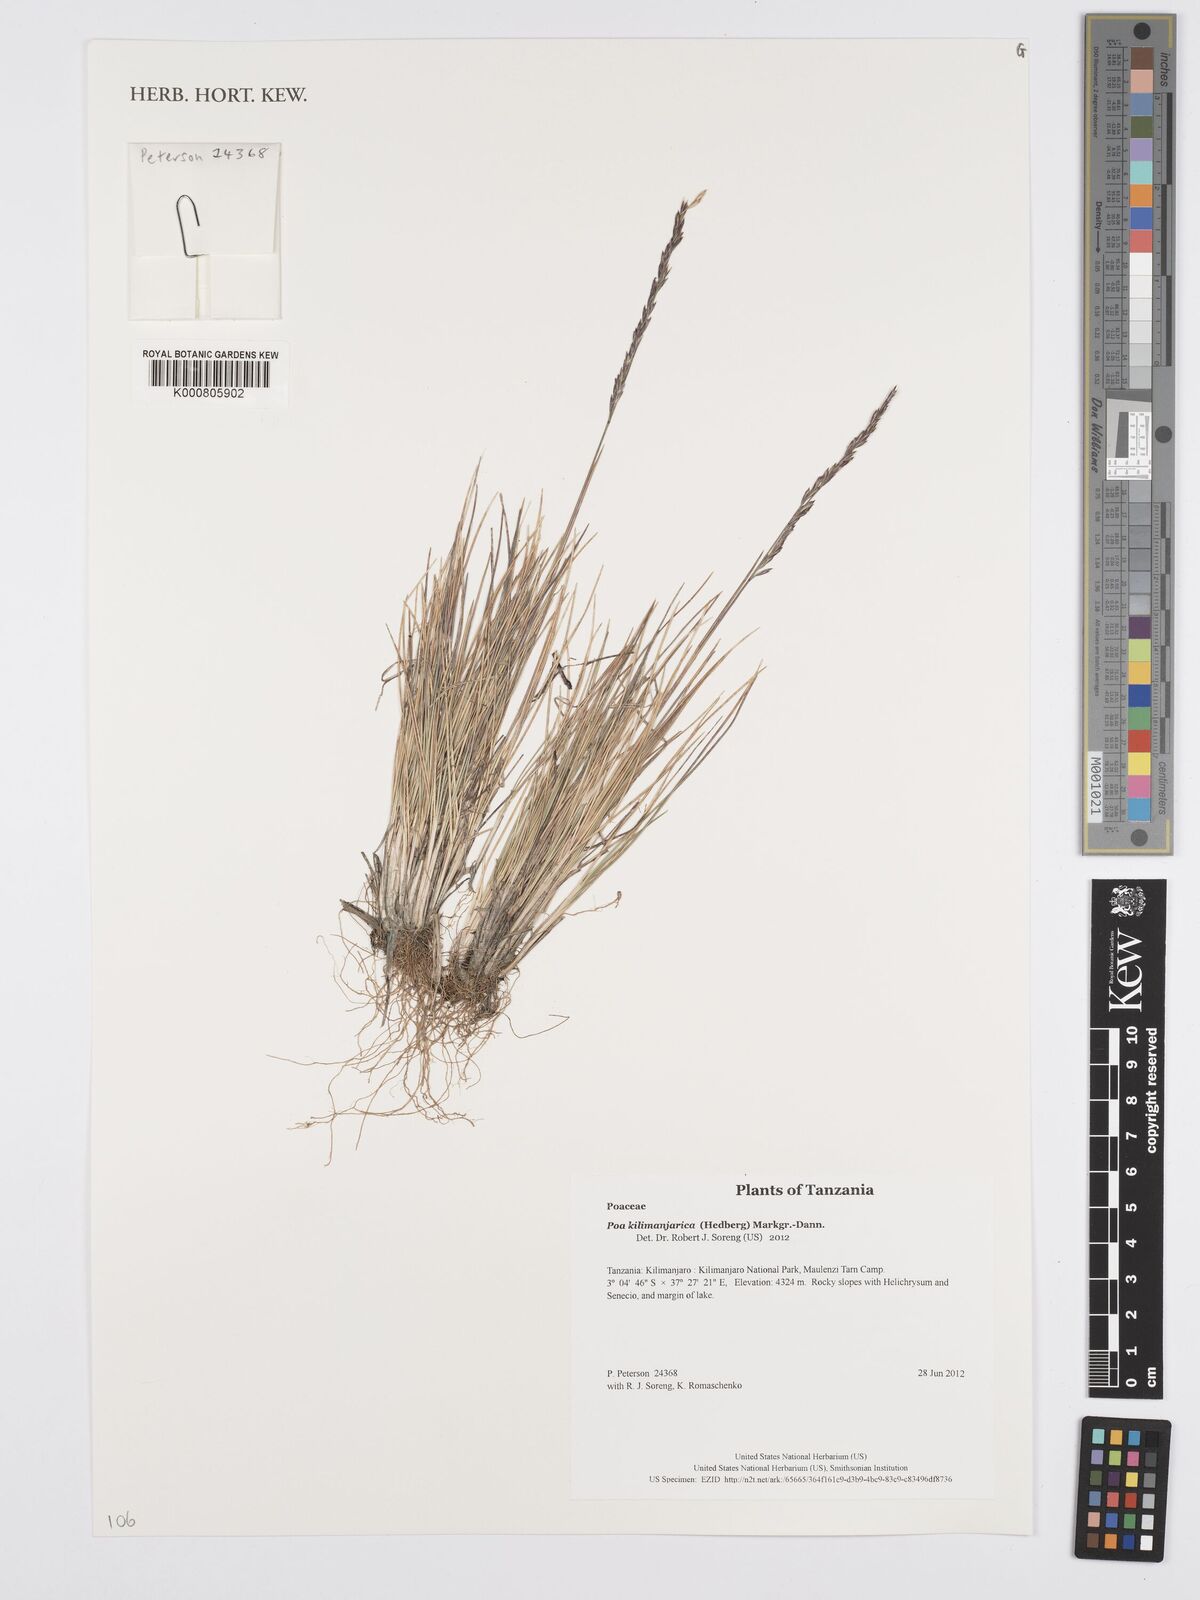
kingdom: Plantae
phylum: Tracheophyta
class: Liliopsida
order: Poales
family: Poaceae
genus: Poa
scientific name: Poa kilimanjarica
